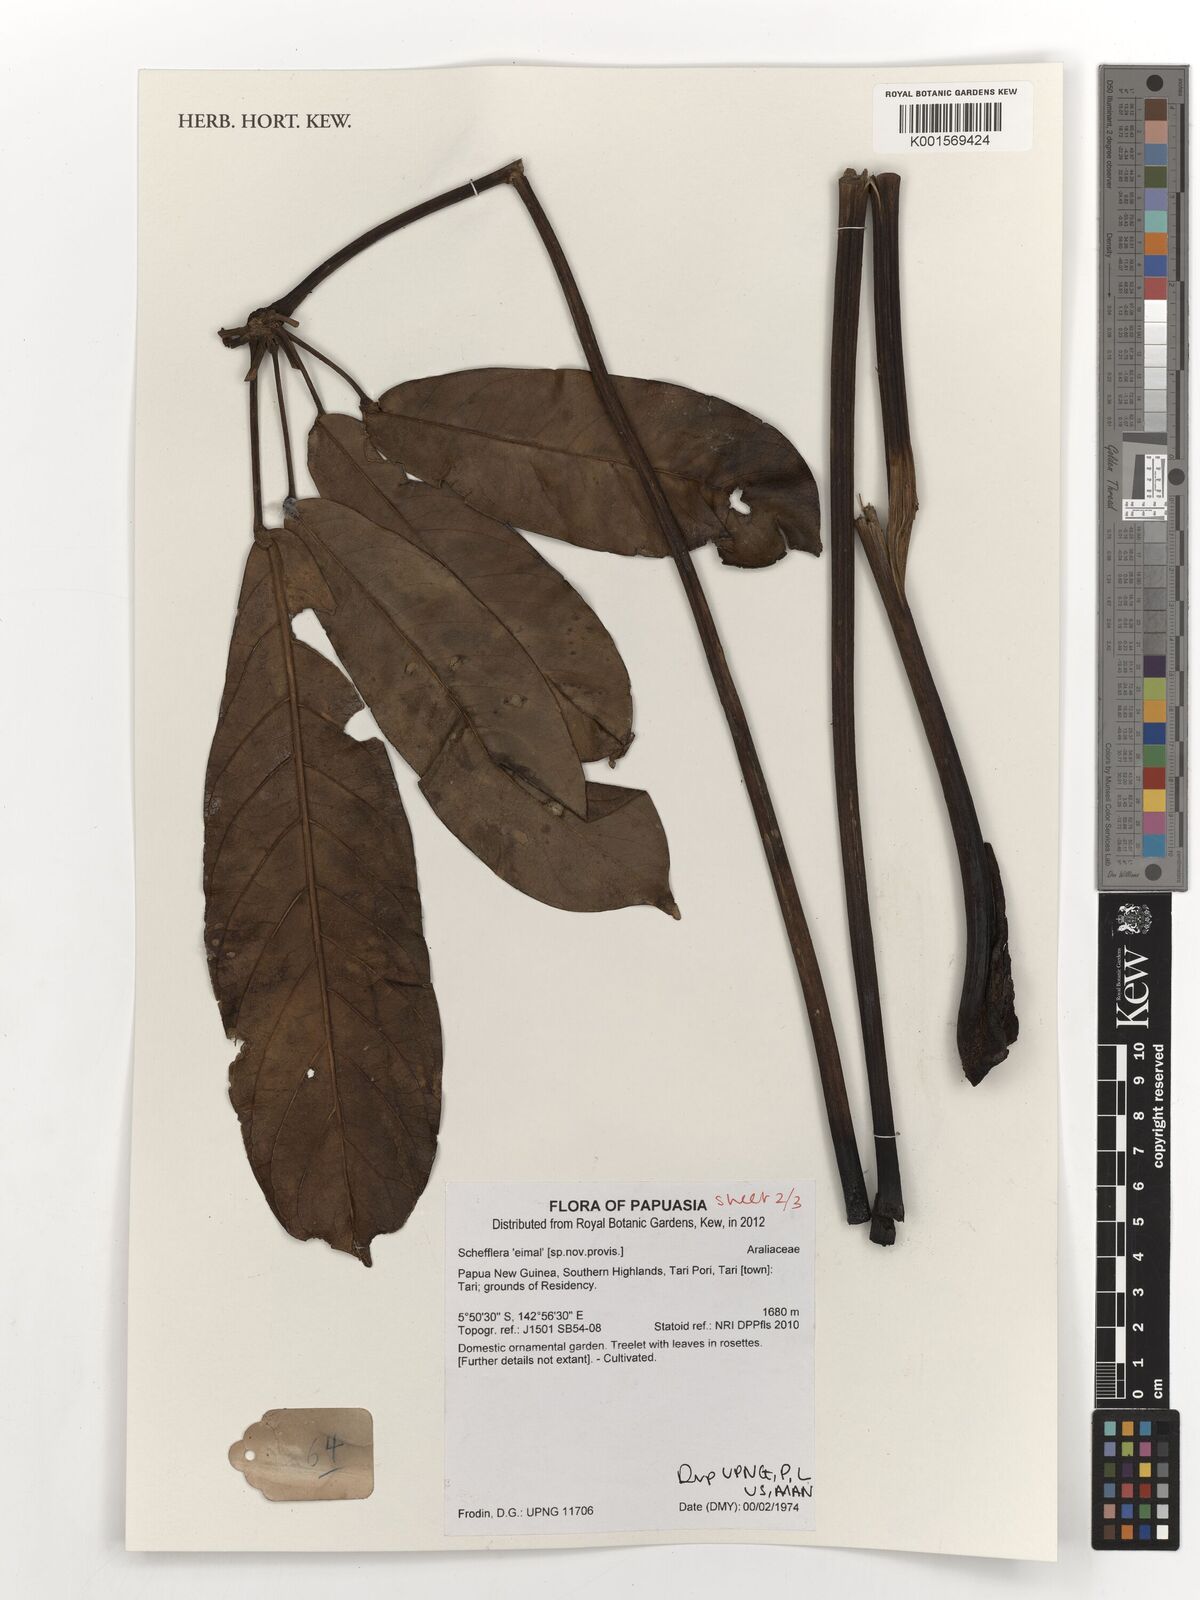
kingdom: Plantae
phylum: Tracheophyta
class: Magnoliopsida
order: Apiales
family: Araliaceae
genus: Schefflera
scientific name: Schefflera
